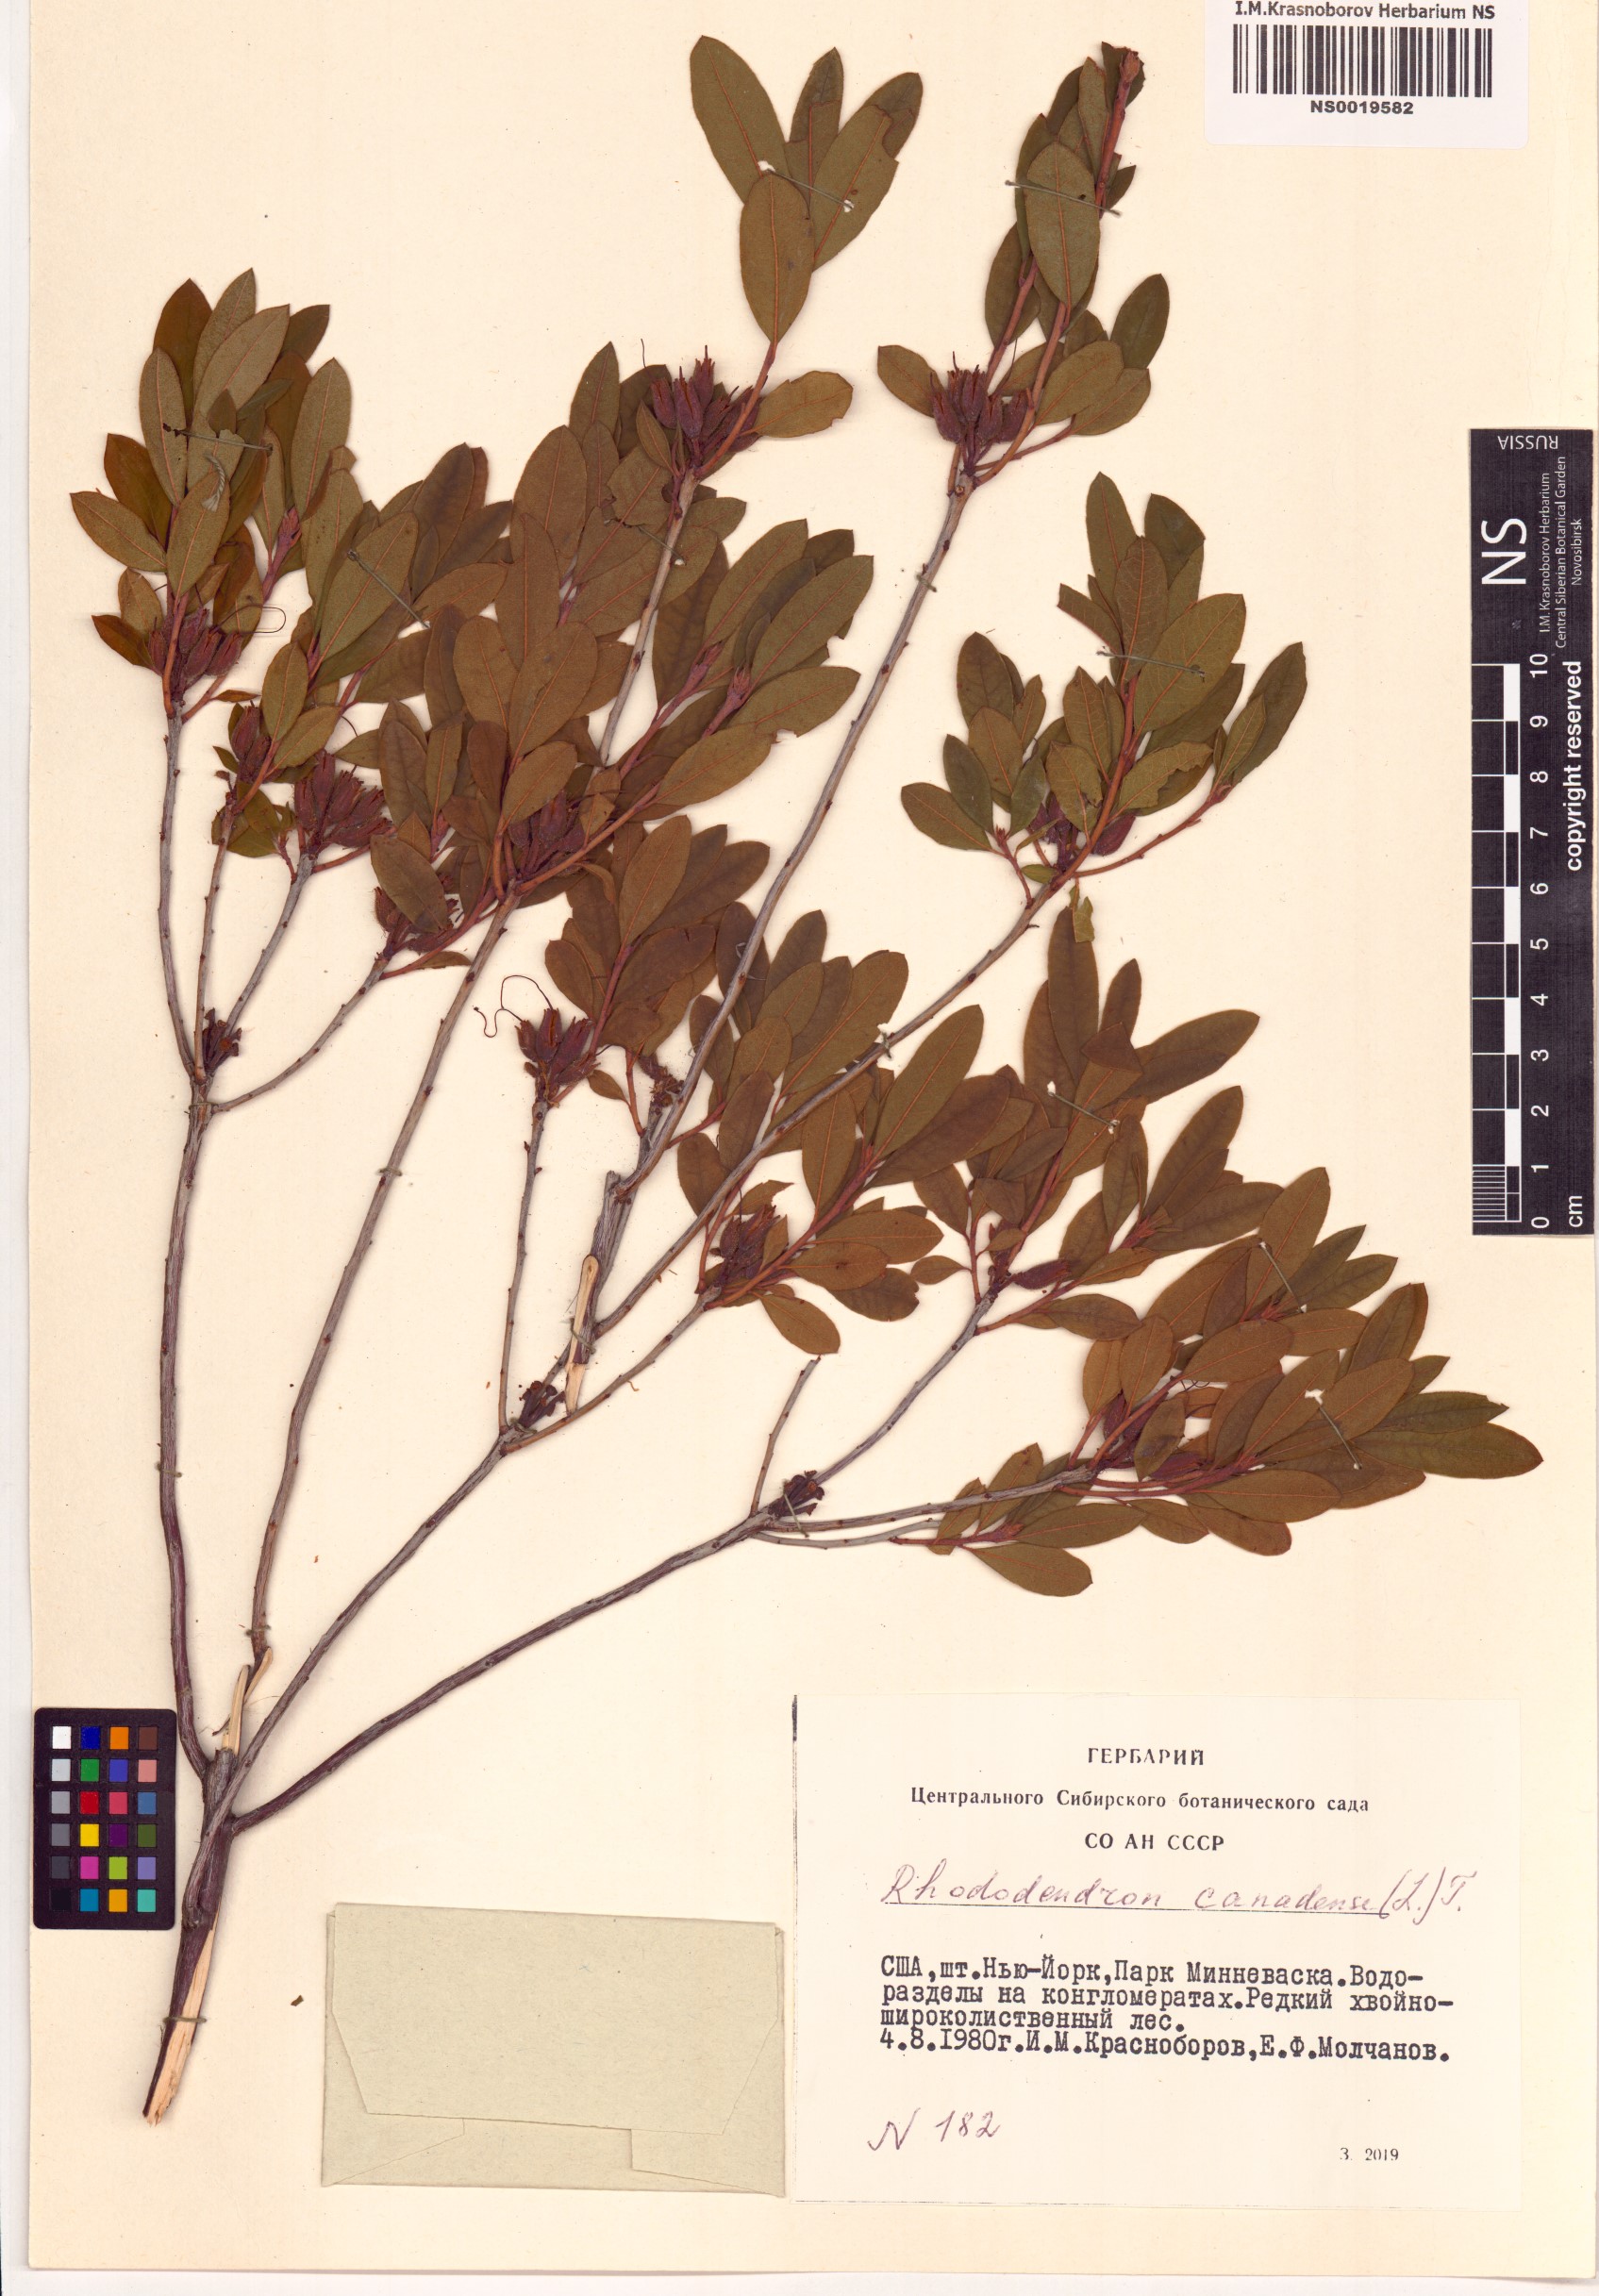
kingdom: Plantae
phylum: Tracheophyta
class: Magnoliopsida
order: Ericales
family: Ericaceae
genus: Rhododendron
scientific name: Rhododendron canadense
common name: Rhodora
